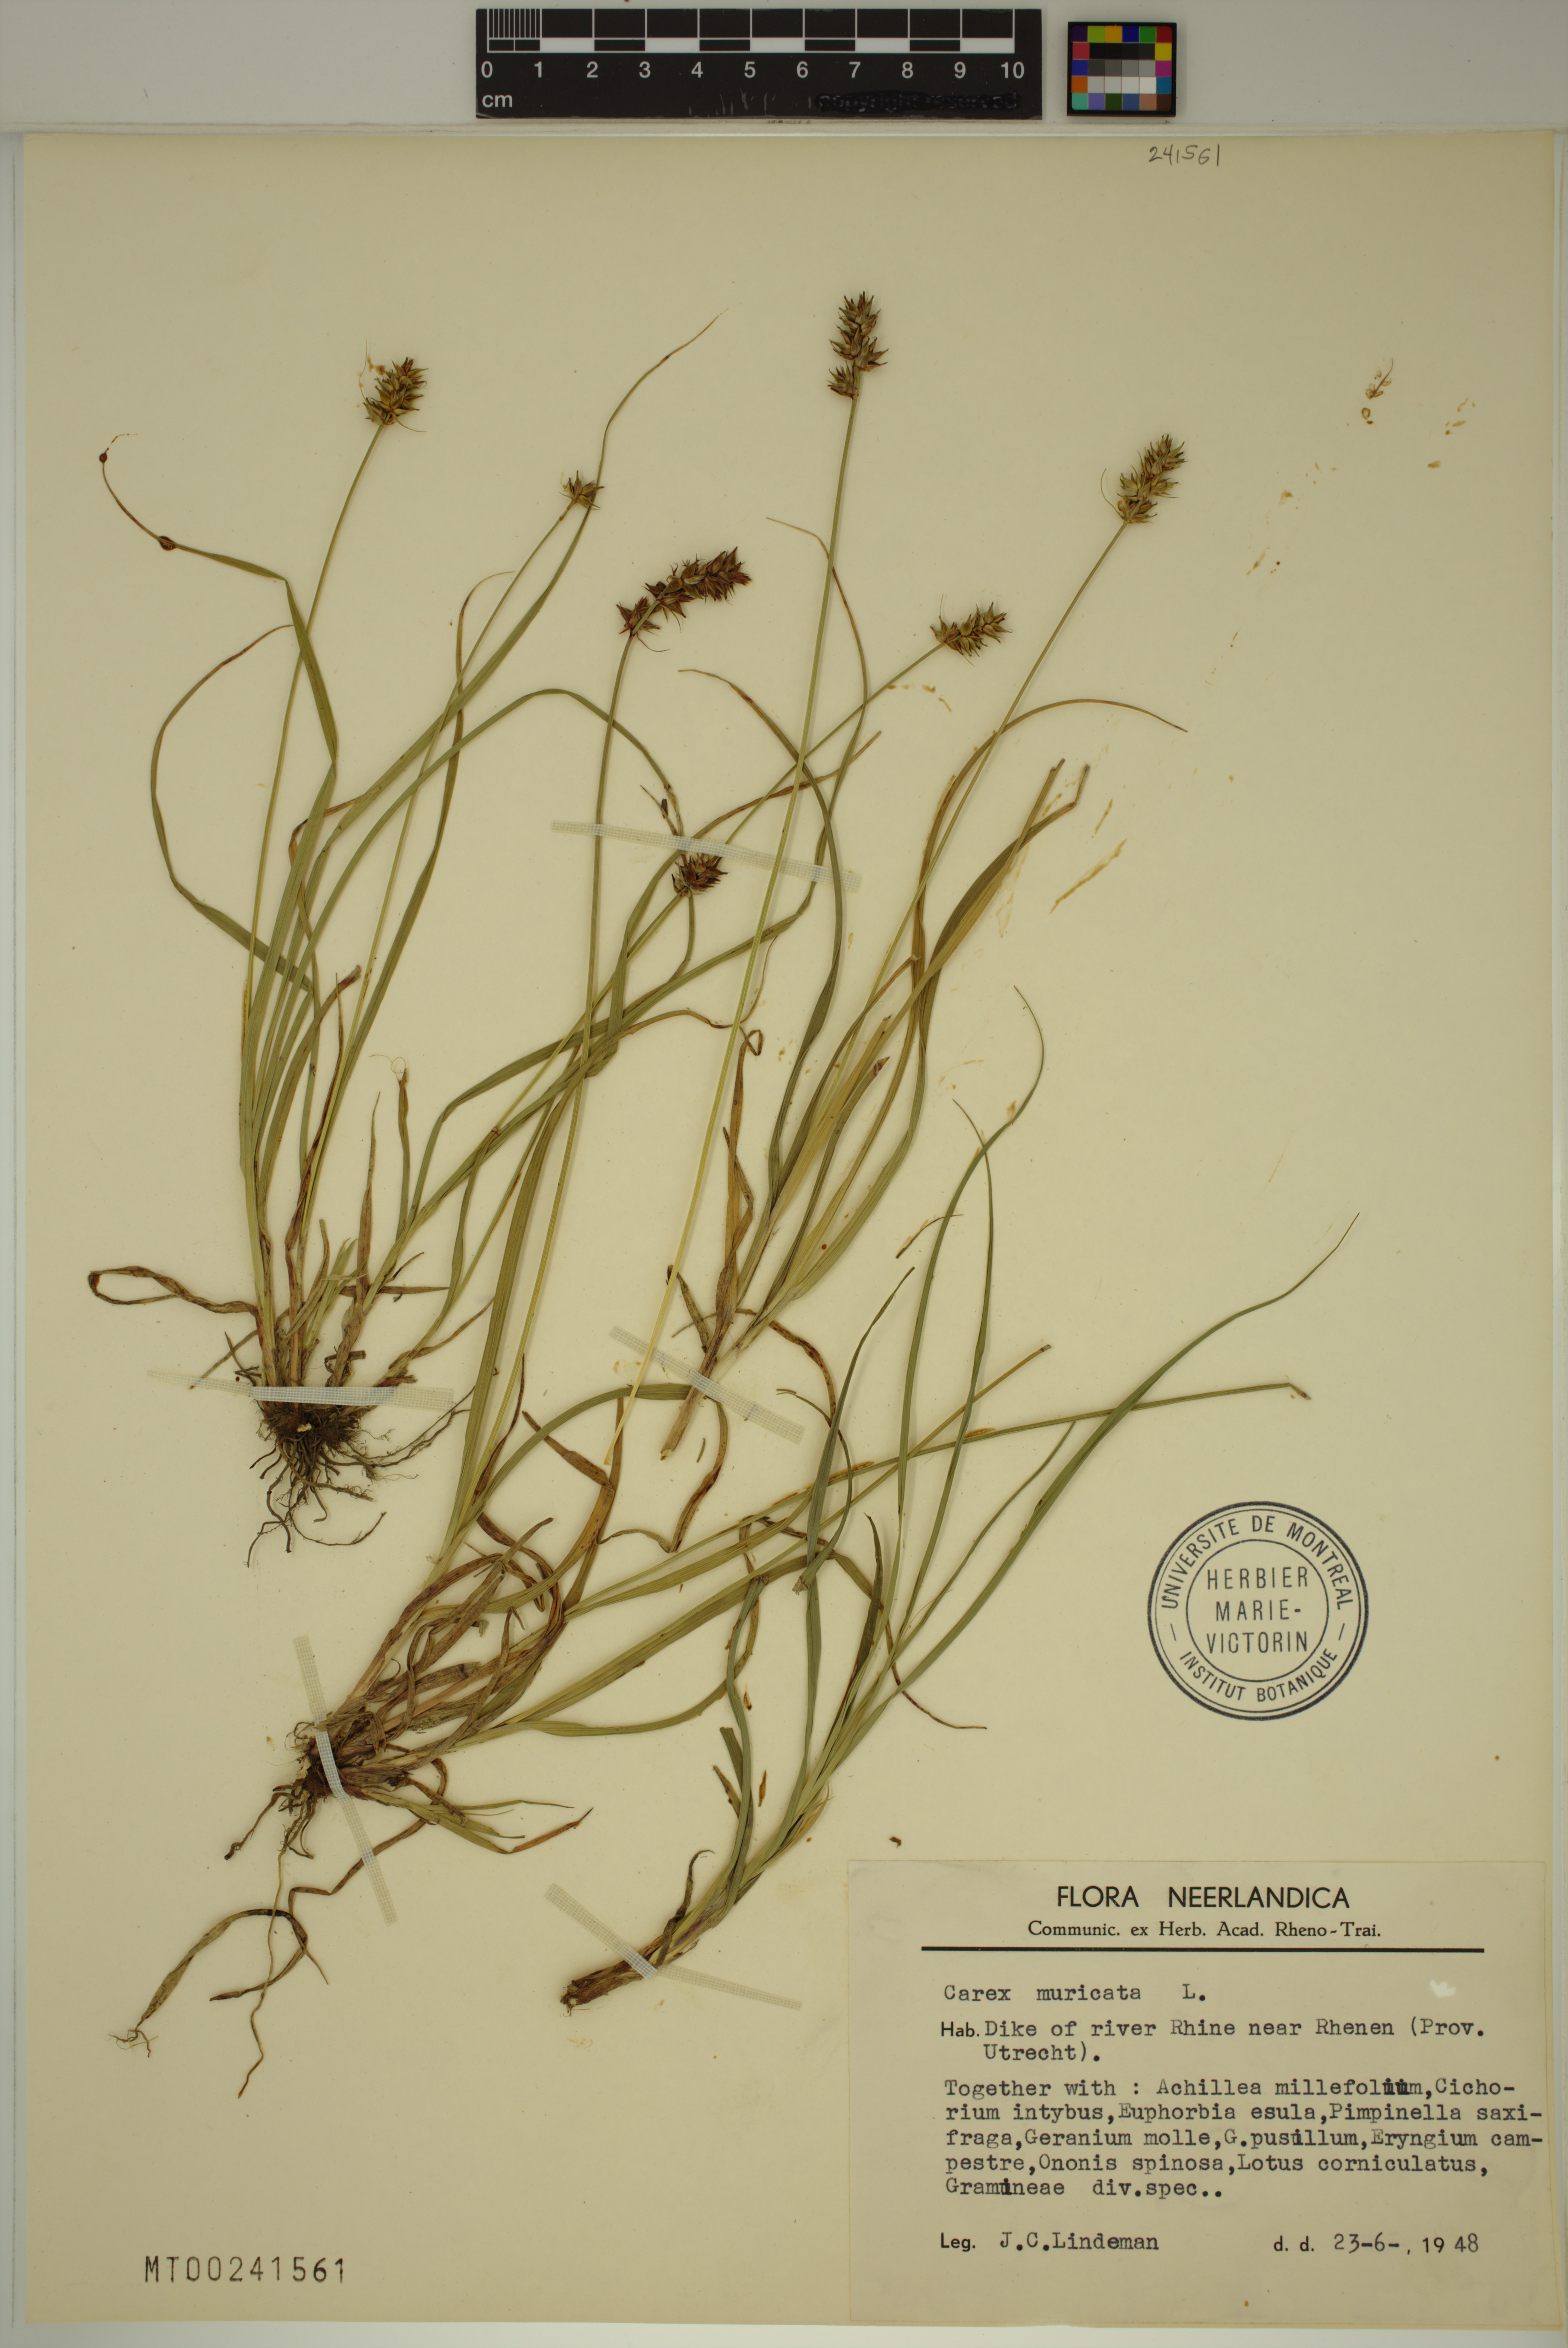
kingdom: Plantae
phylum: Tracheophyta
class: Liliopsida
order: Poales
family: Cyperaceae
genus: Carex
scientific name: Carex muricata
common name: Rough sedge
